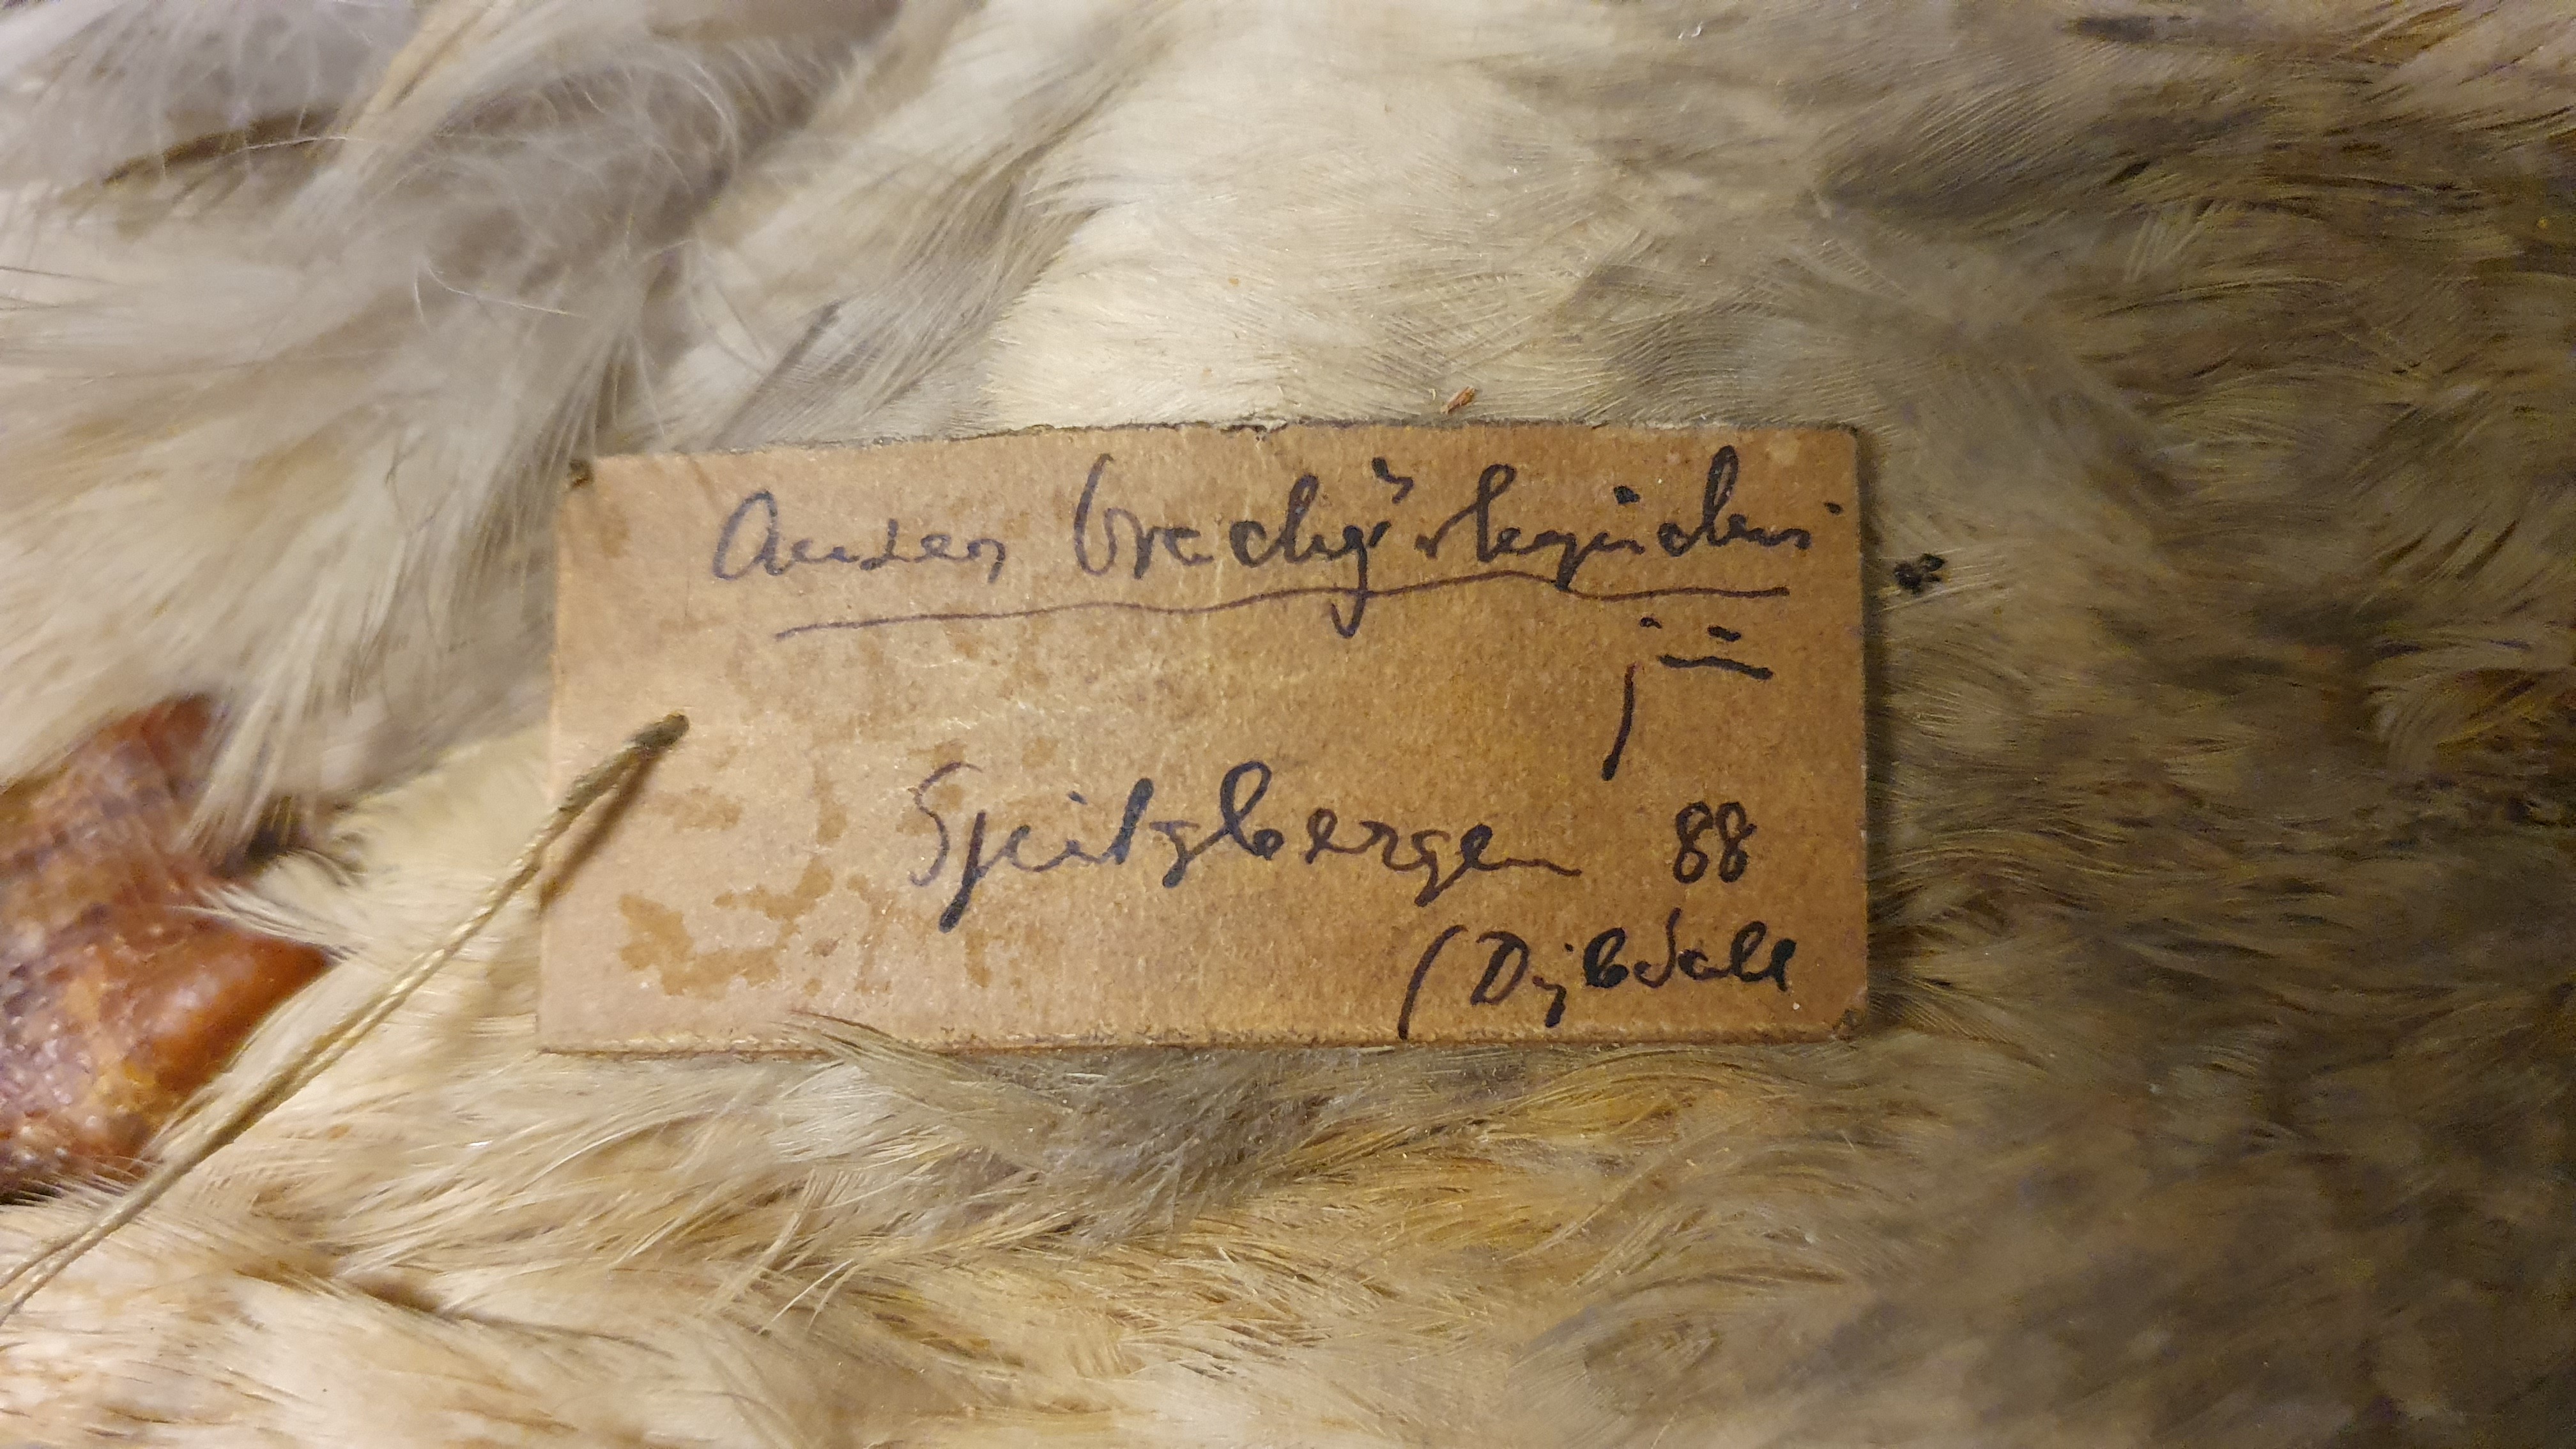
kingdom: Animalia
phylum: Chordata
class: Aves
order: Anseriformes
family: Anatidae
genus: Anser
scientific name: Anser brachyrhynchus
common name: Pink-footed goose
